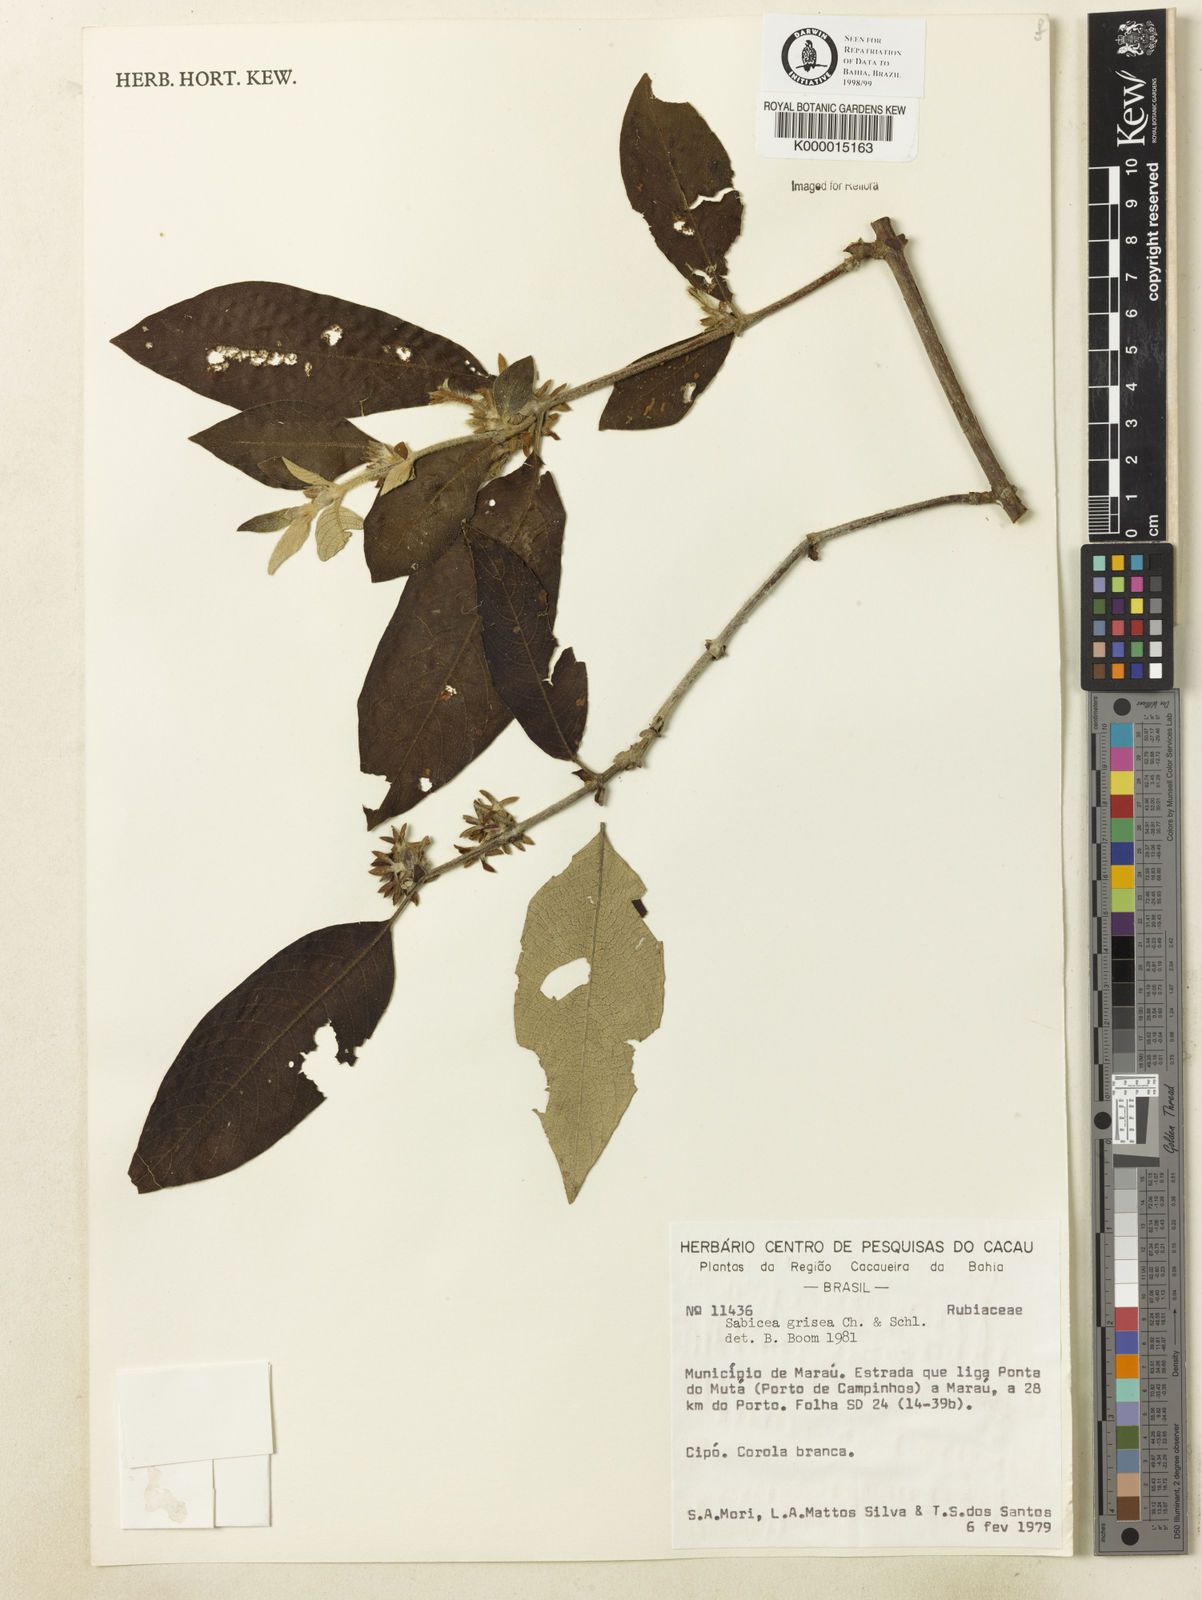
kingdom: Plantae
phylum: Tracheophyta
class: Magnoliopsida
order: Gentianales
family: Rubiaceae
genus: Sabicea
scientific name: Sabicea grisea
